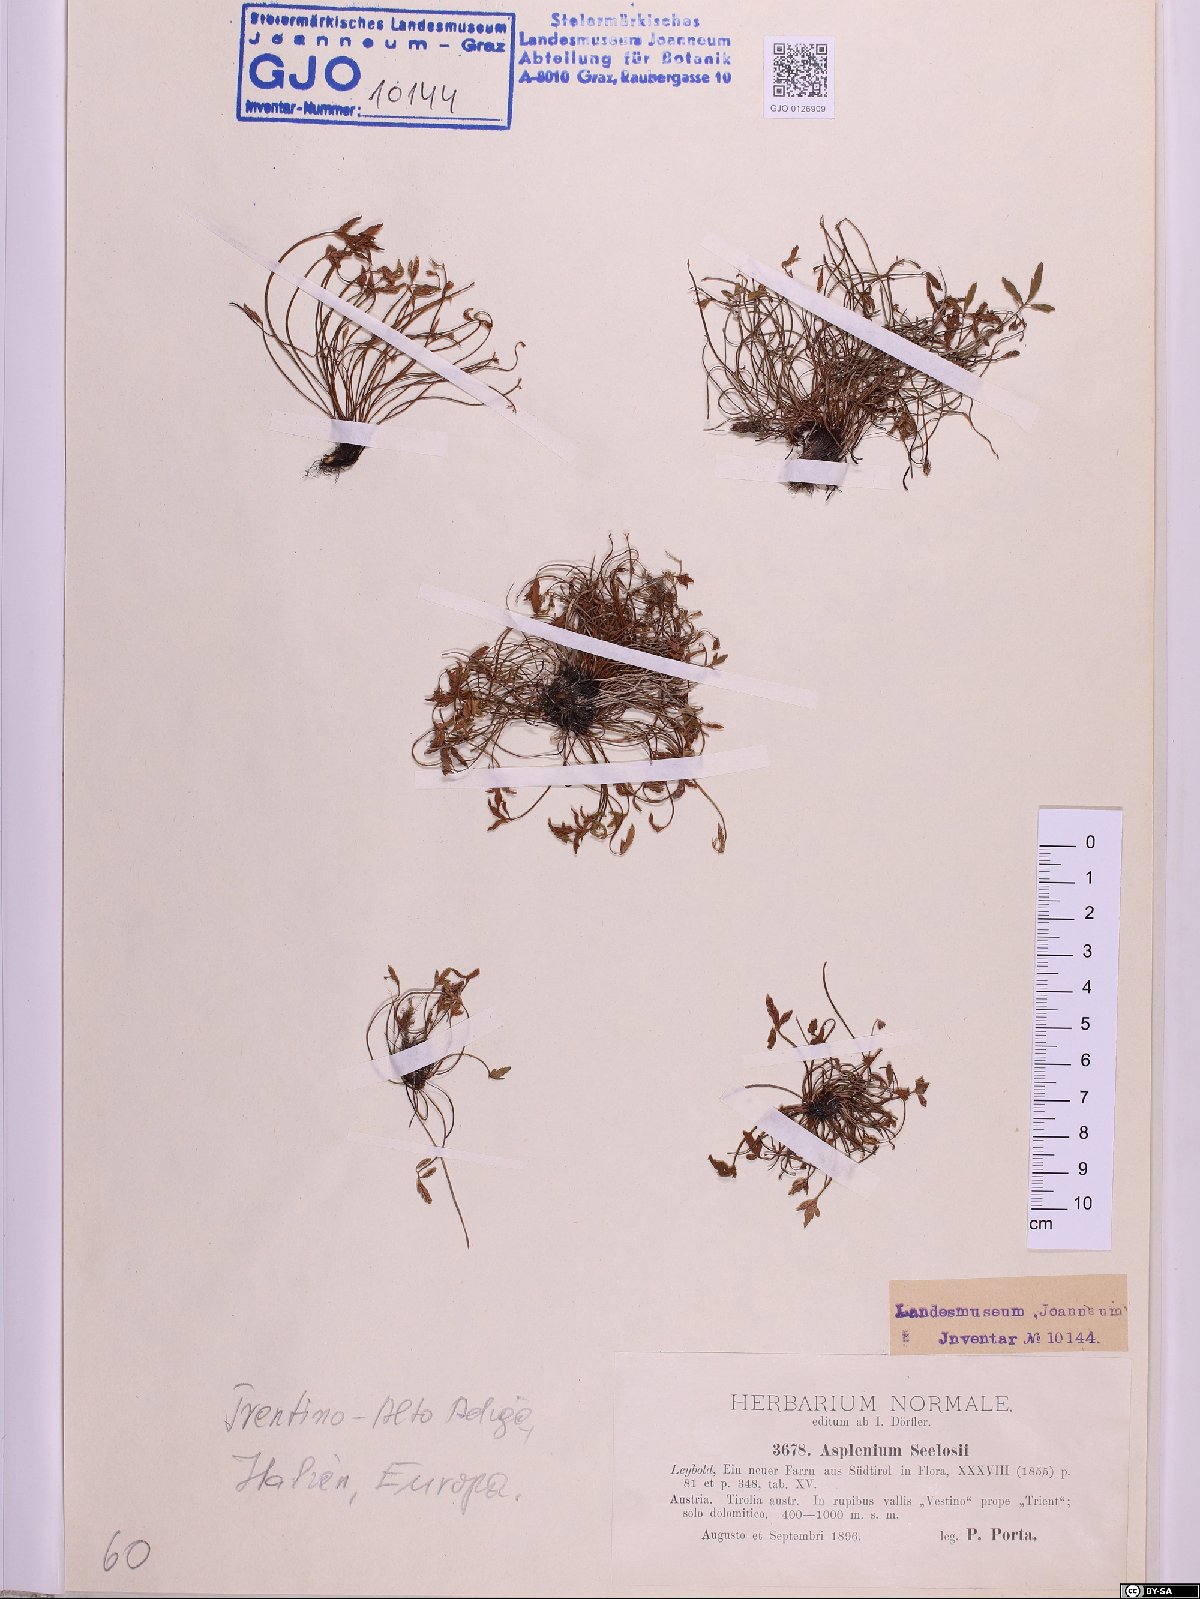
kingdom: Plantae
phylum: Tracheophyta
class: Polypodiopsida
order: Polypodiales
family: Aspleniaceae
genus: Asplenium
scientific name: Asplenium seelosii
